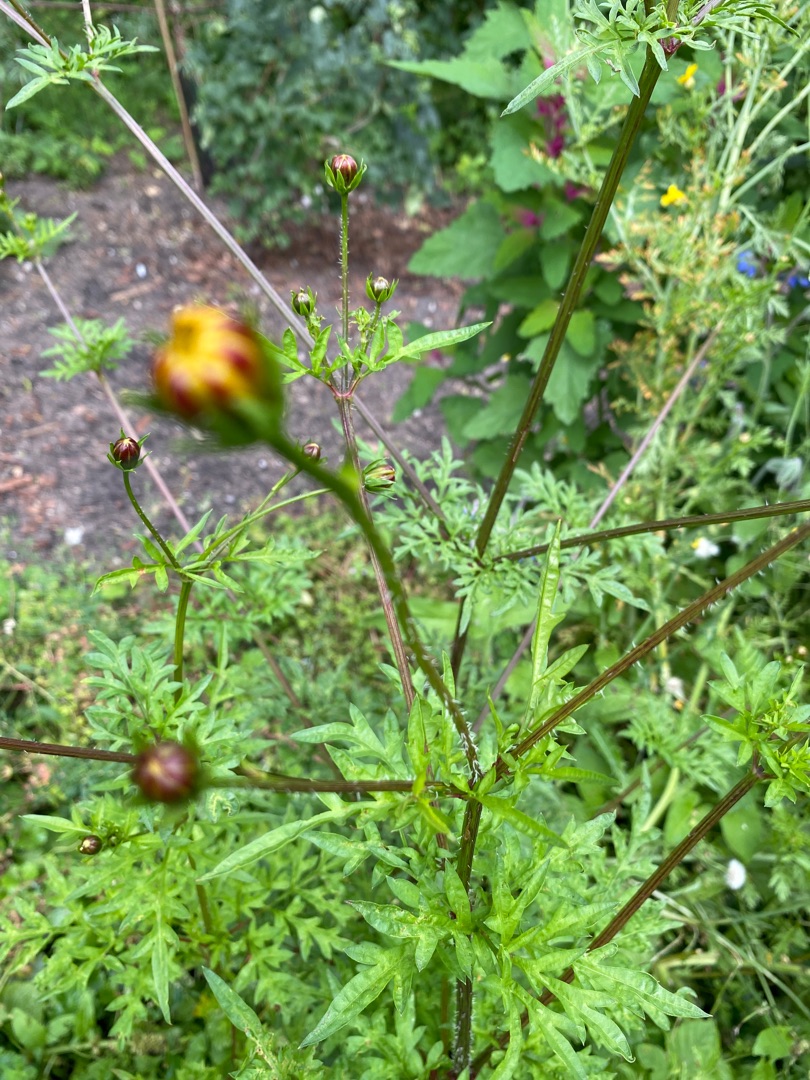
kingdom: Plantae
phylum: Tracheophyta
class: Magnoliopsida
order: Asterales
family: Asteraceae
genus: Cosmos
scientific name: Cosmos sulphureus
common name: Orange smykkekurv
